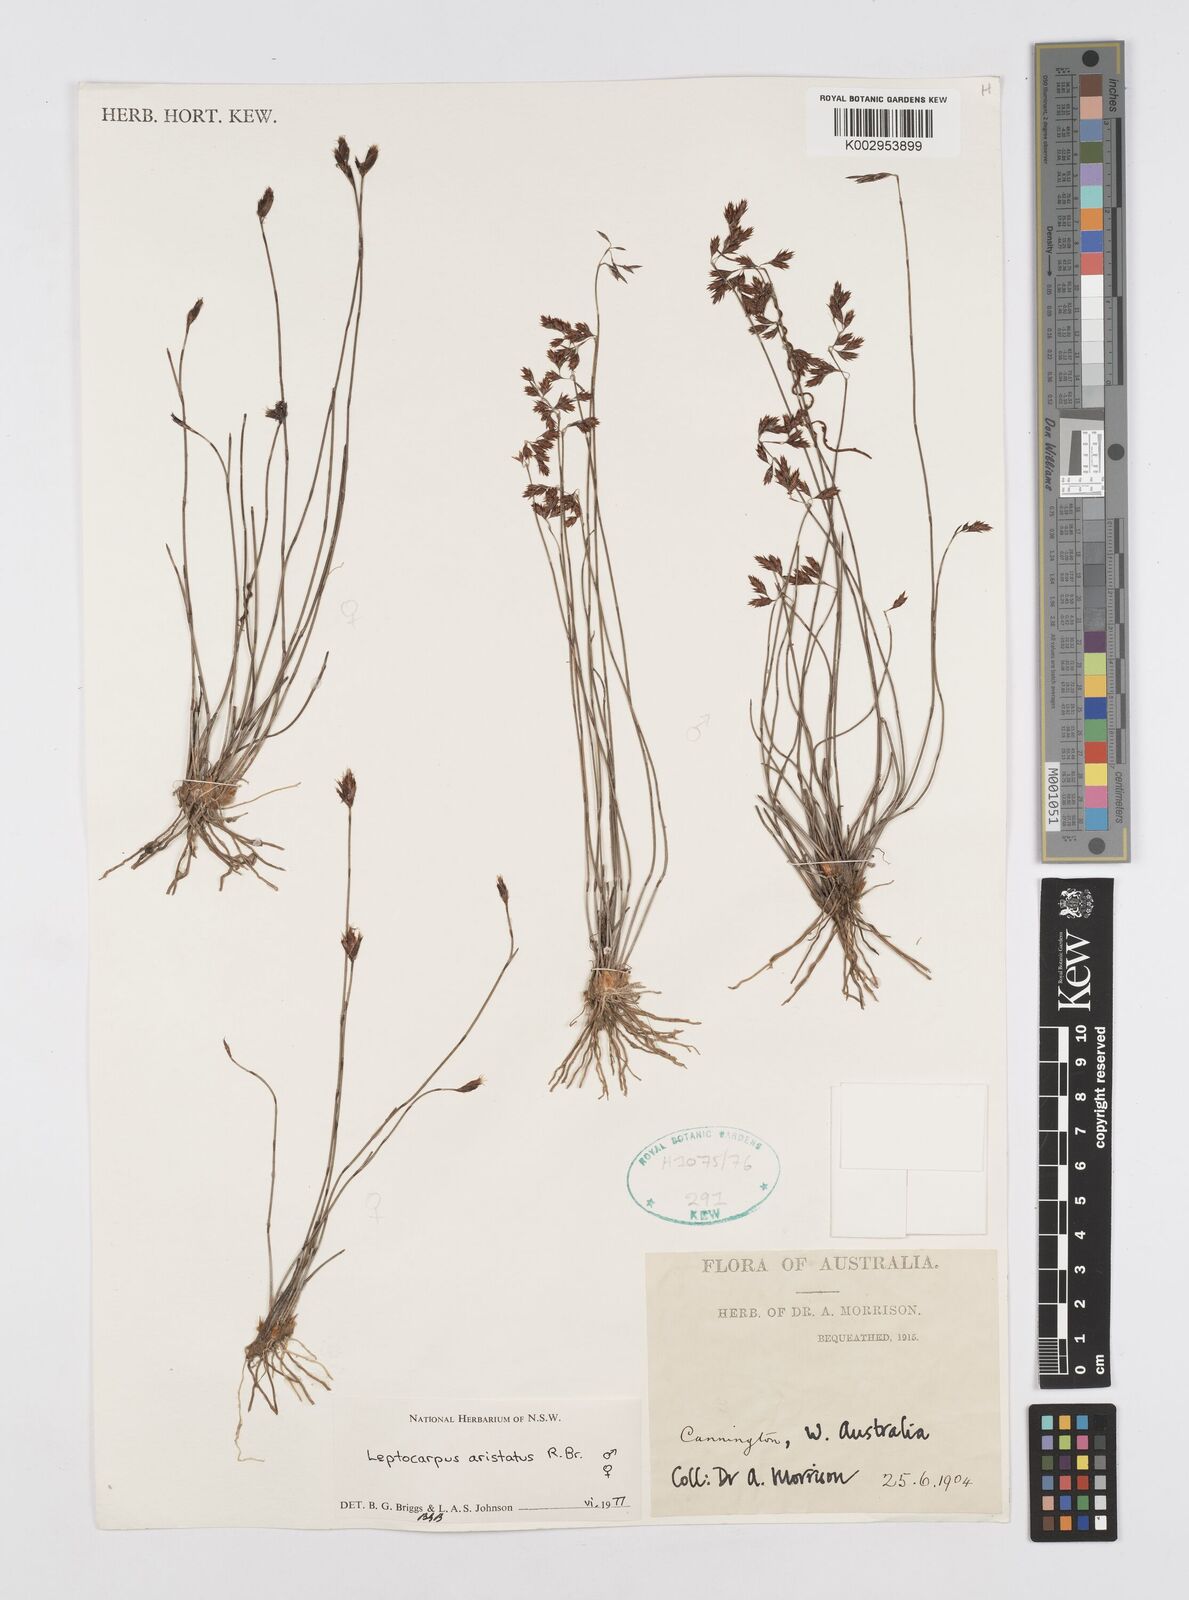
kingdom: Plantae
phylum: Tracheophyta
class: Liliopsida
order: Poales
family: Restionaceae
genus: Chaetanthus
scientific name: Chaetanthus aristatus
